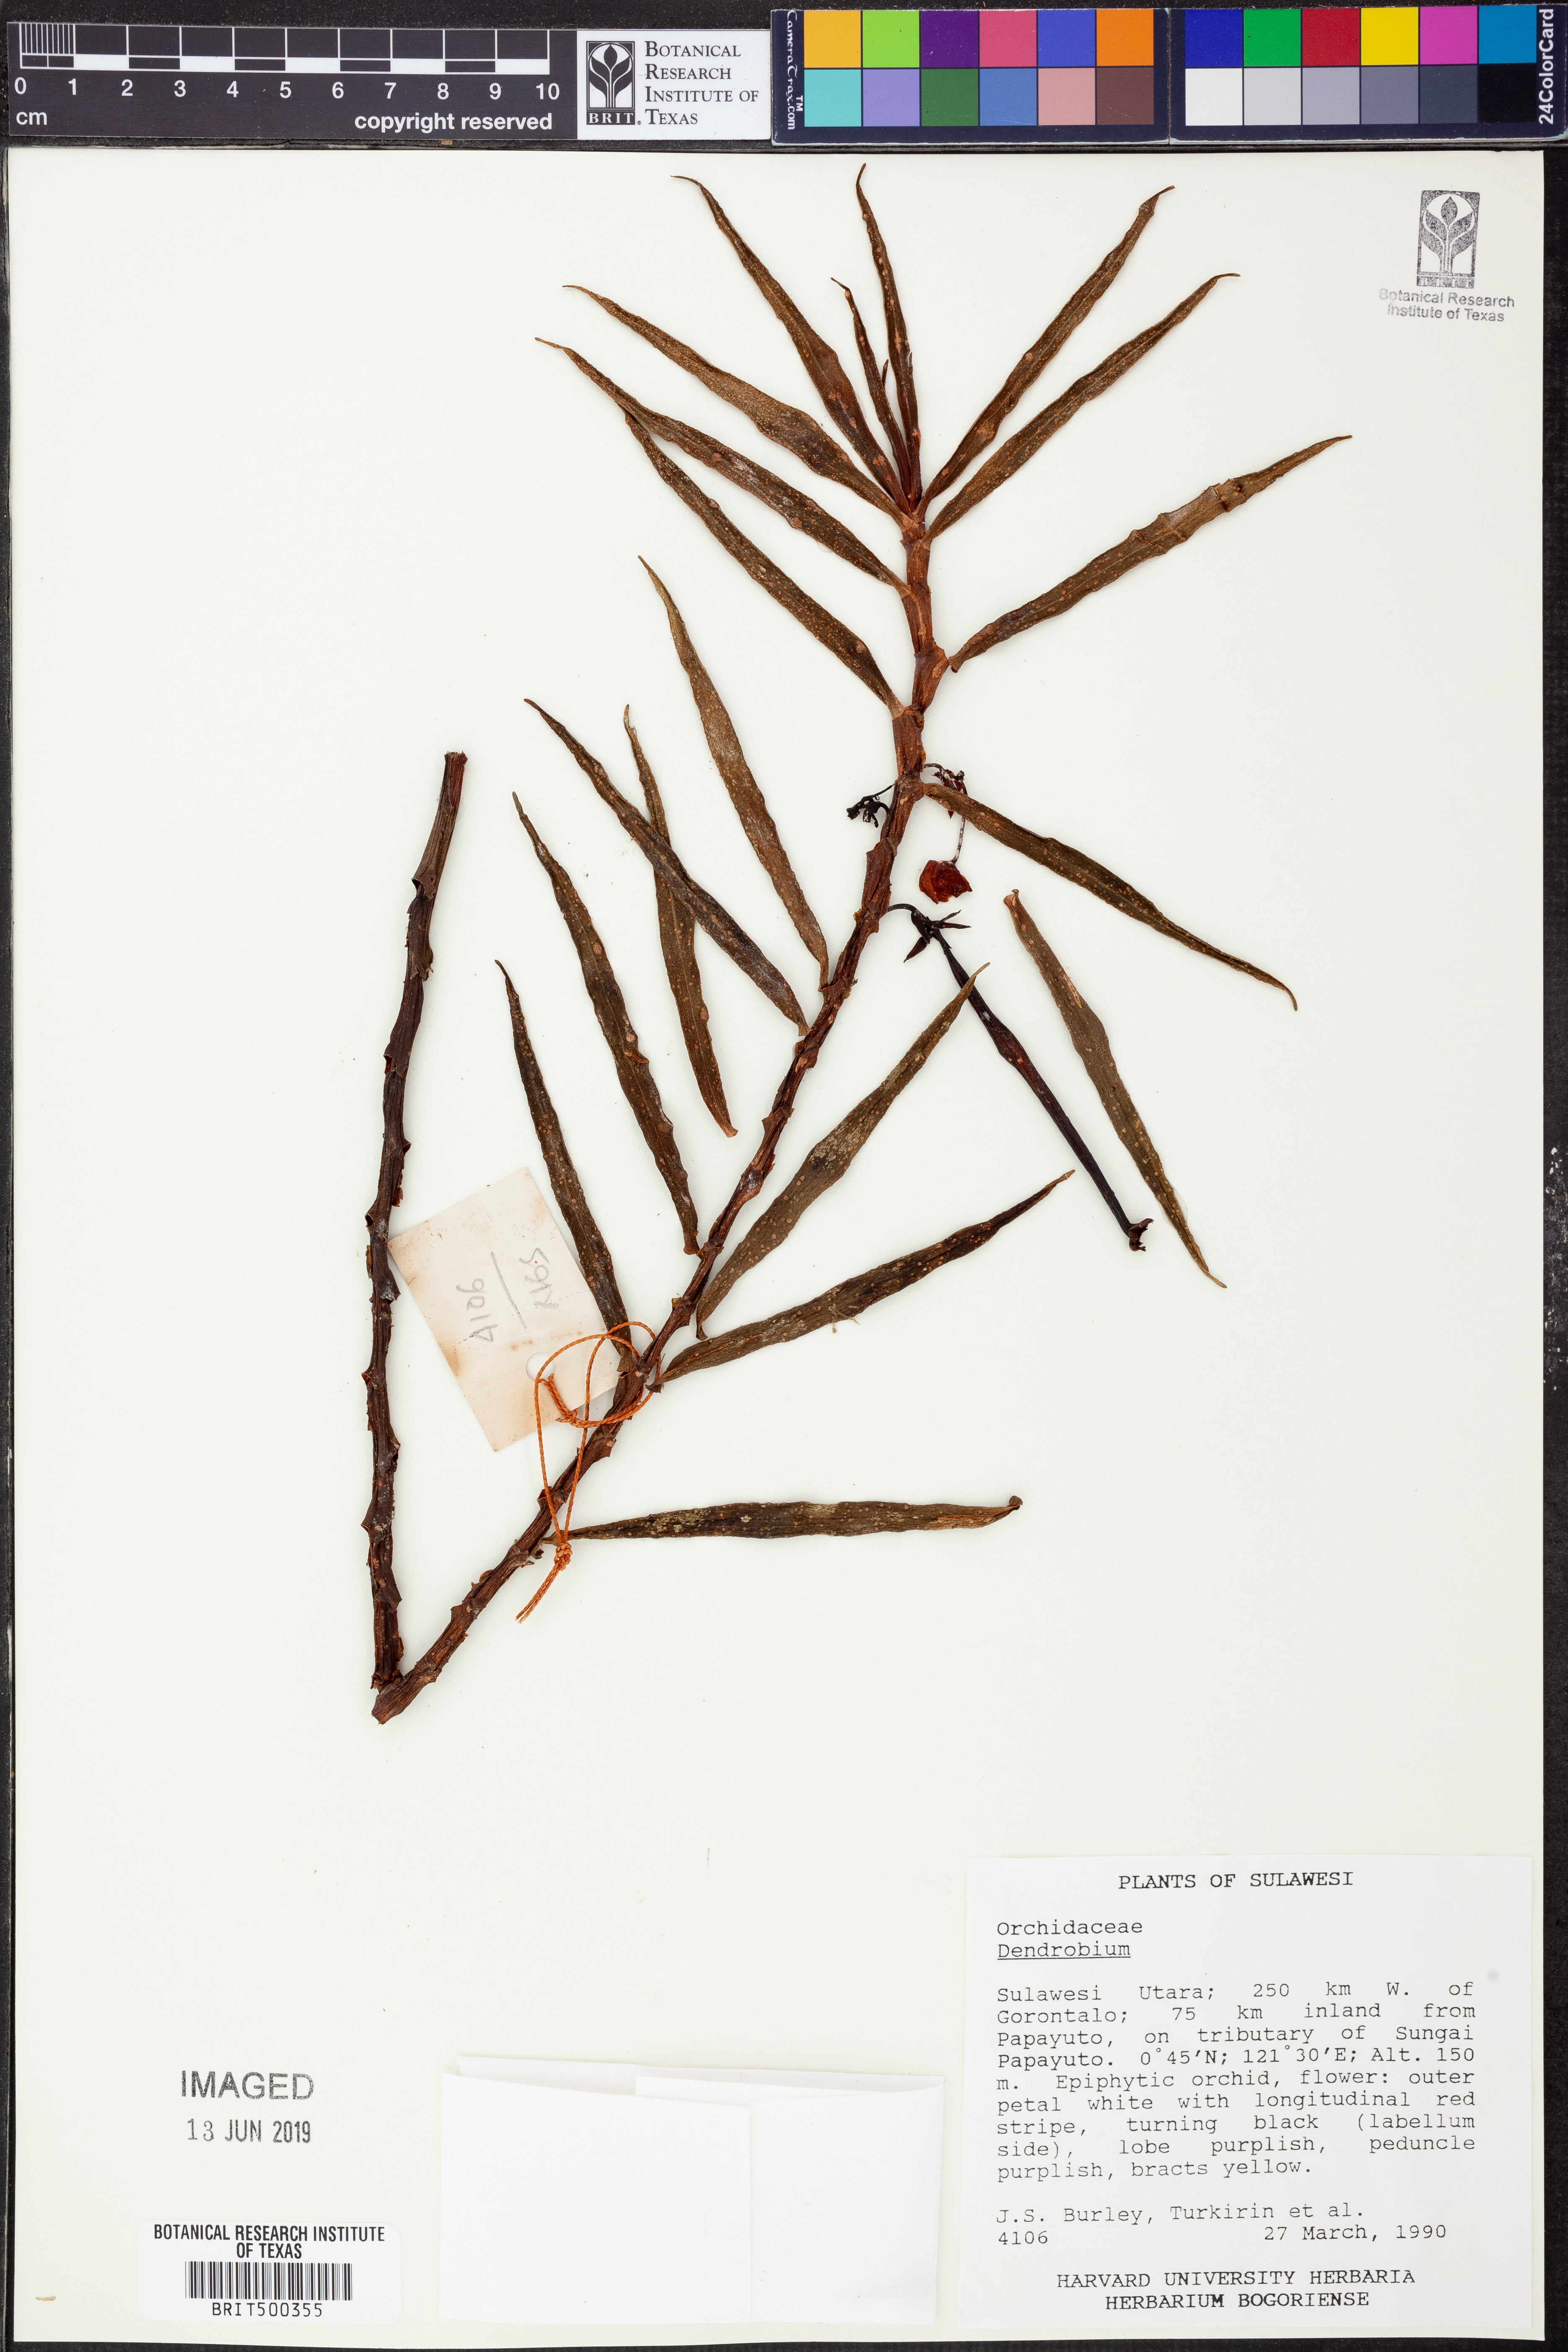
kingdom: Plantae
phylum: Tracheophyta
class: Liliopsida
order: Asparagales
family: Orchidaceae
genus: Dendrobium
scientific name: Dendrobium
